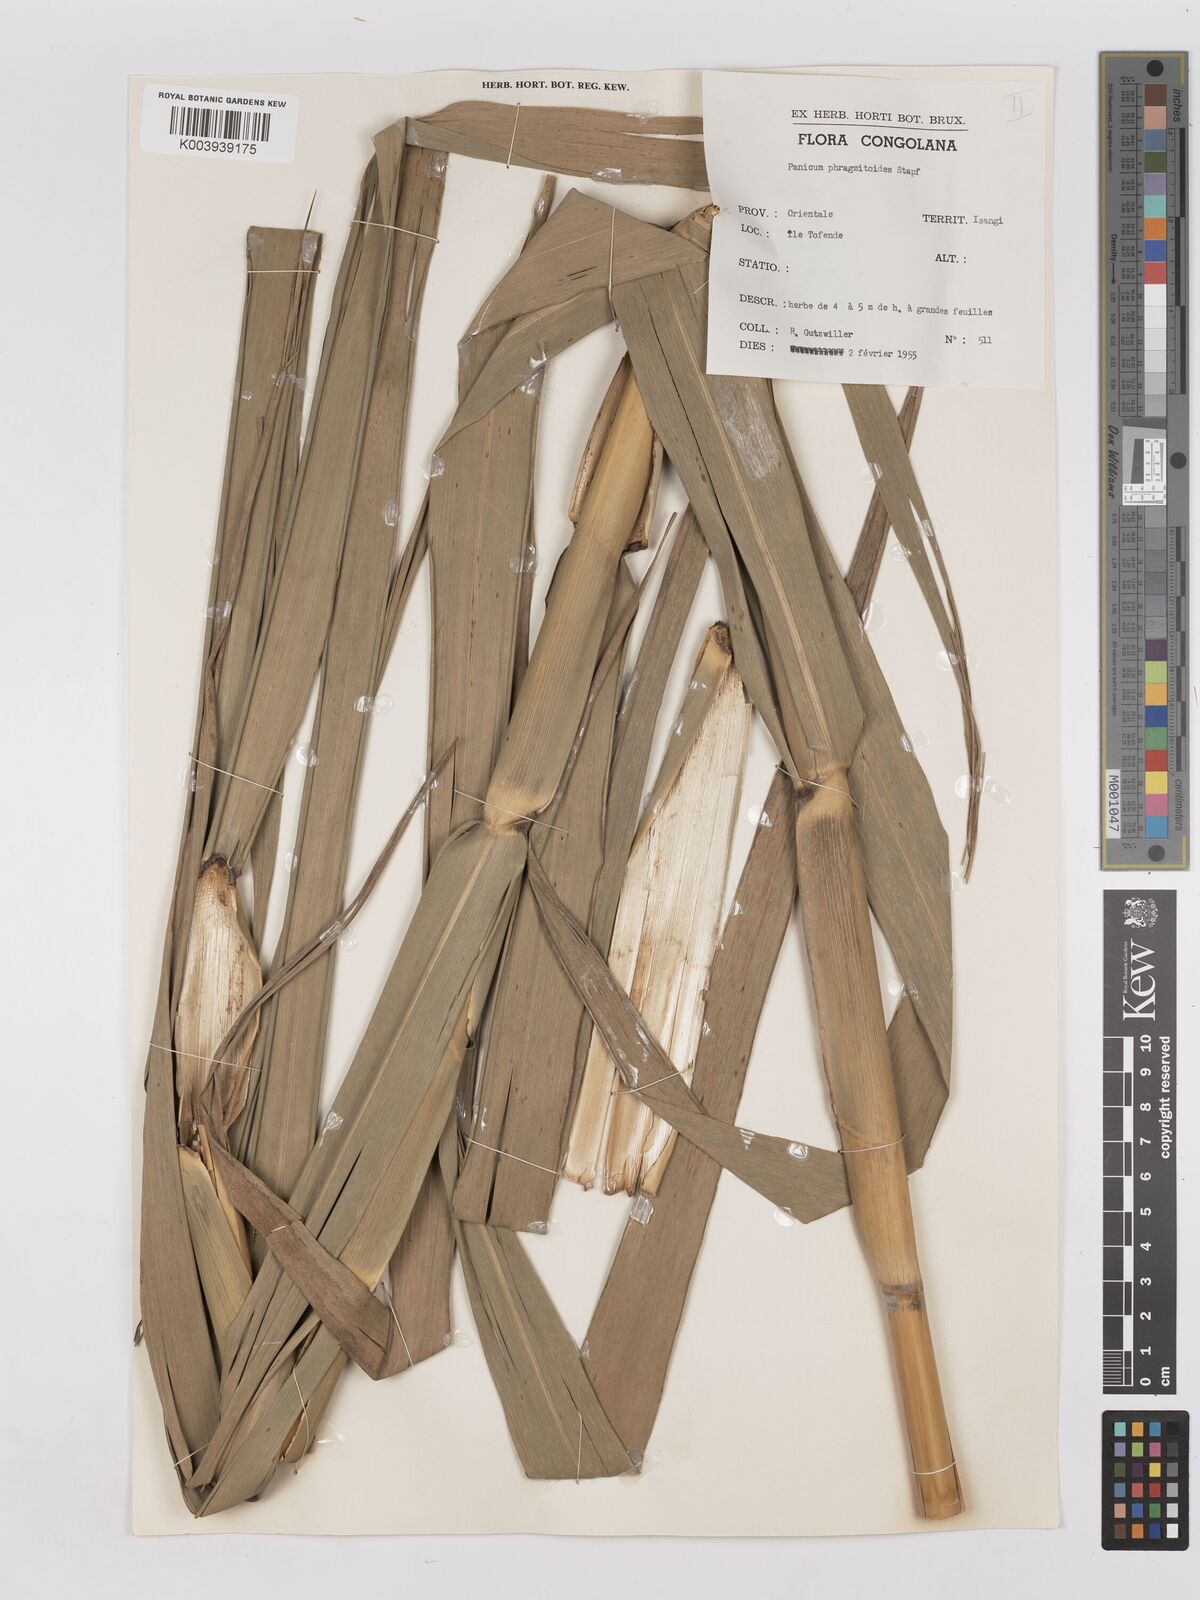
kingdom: Plantae
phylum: Tracheophyta
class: Liliopsida
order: Poales
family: Poaceae
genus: Phragmites
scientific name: Phragmites mauritianus
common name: Reed grass
